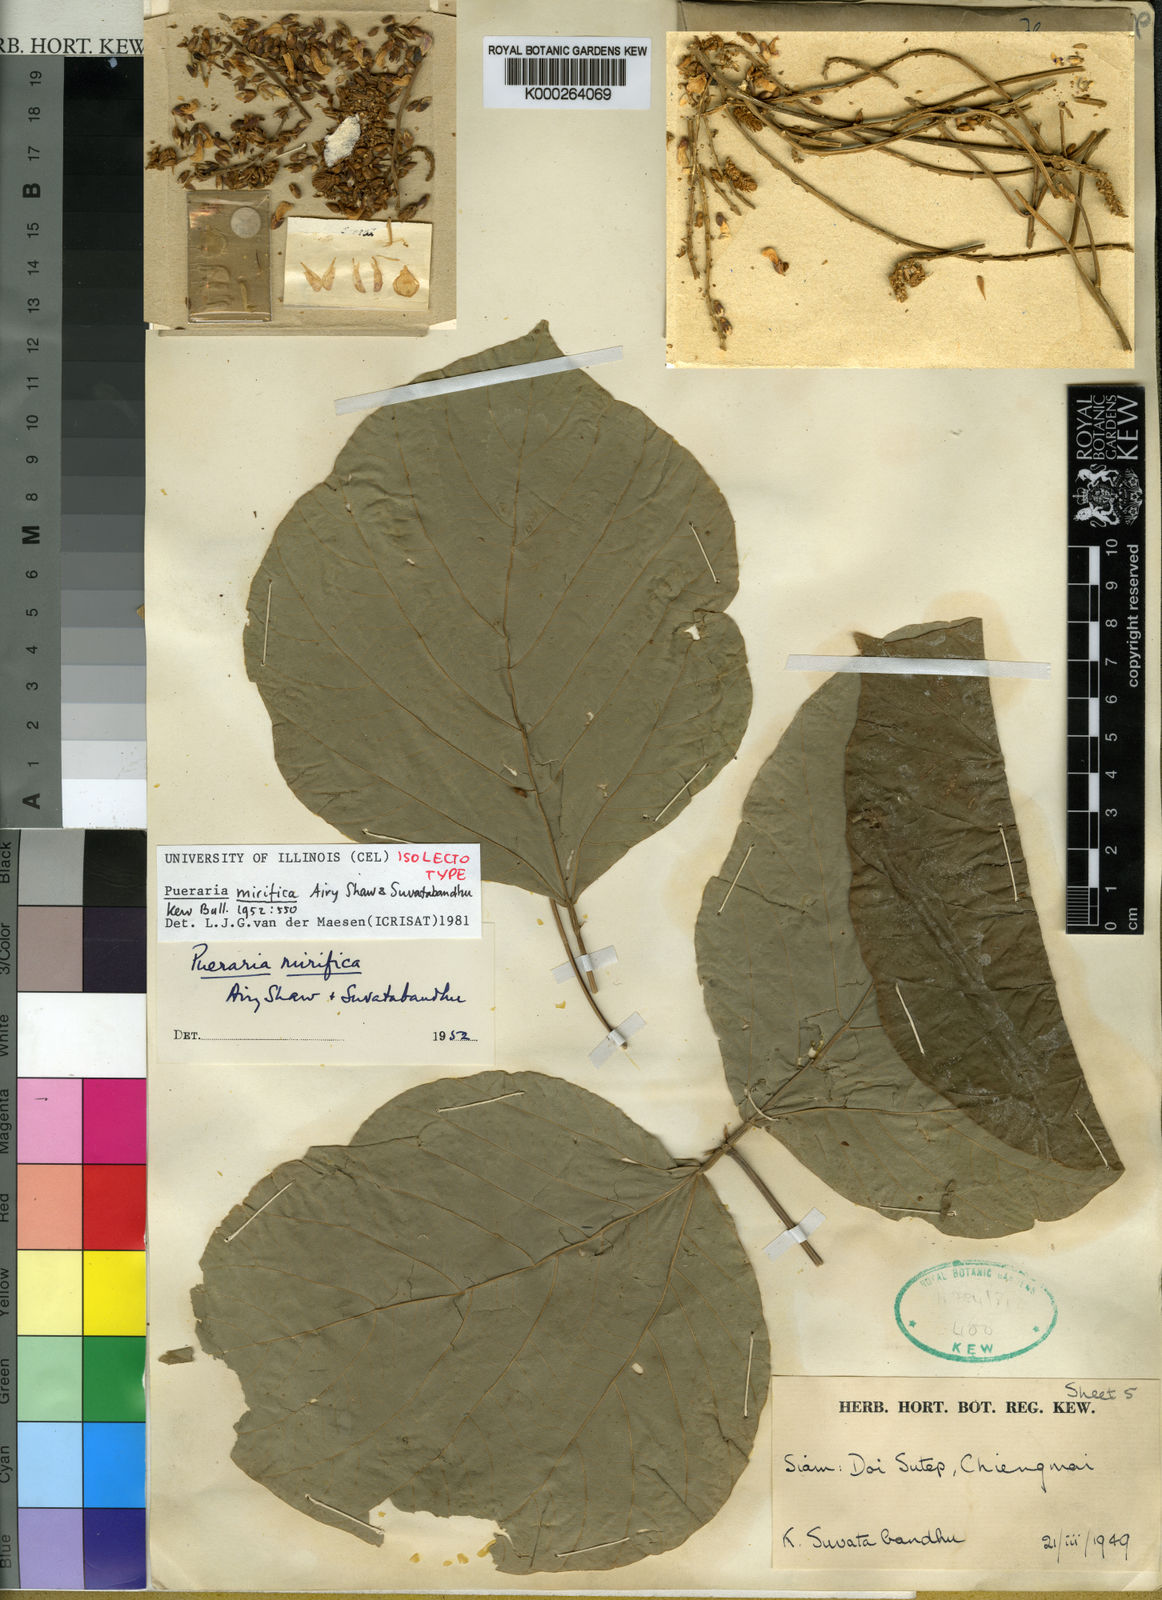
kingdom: Plantae
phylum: Tracheophyta
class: Magnoliopsida
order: Fabales
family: Fabaceae
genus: Pueraria
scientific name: Pueraria mirifica
